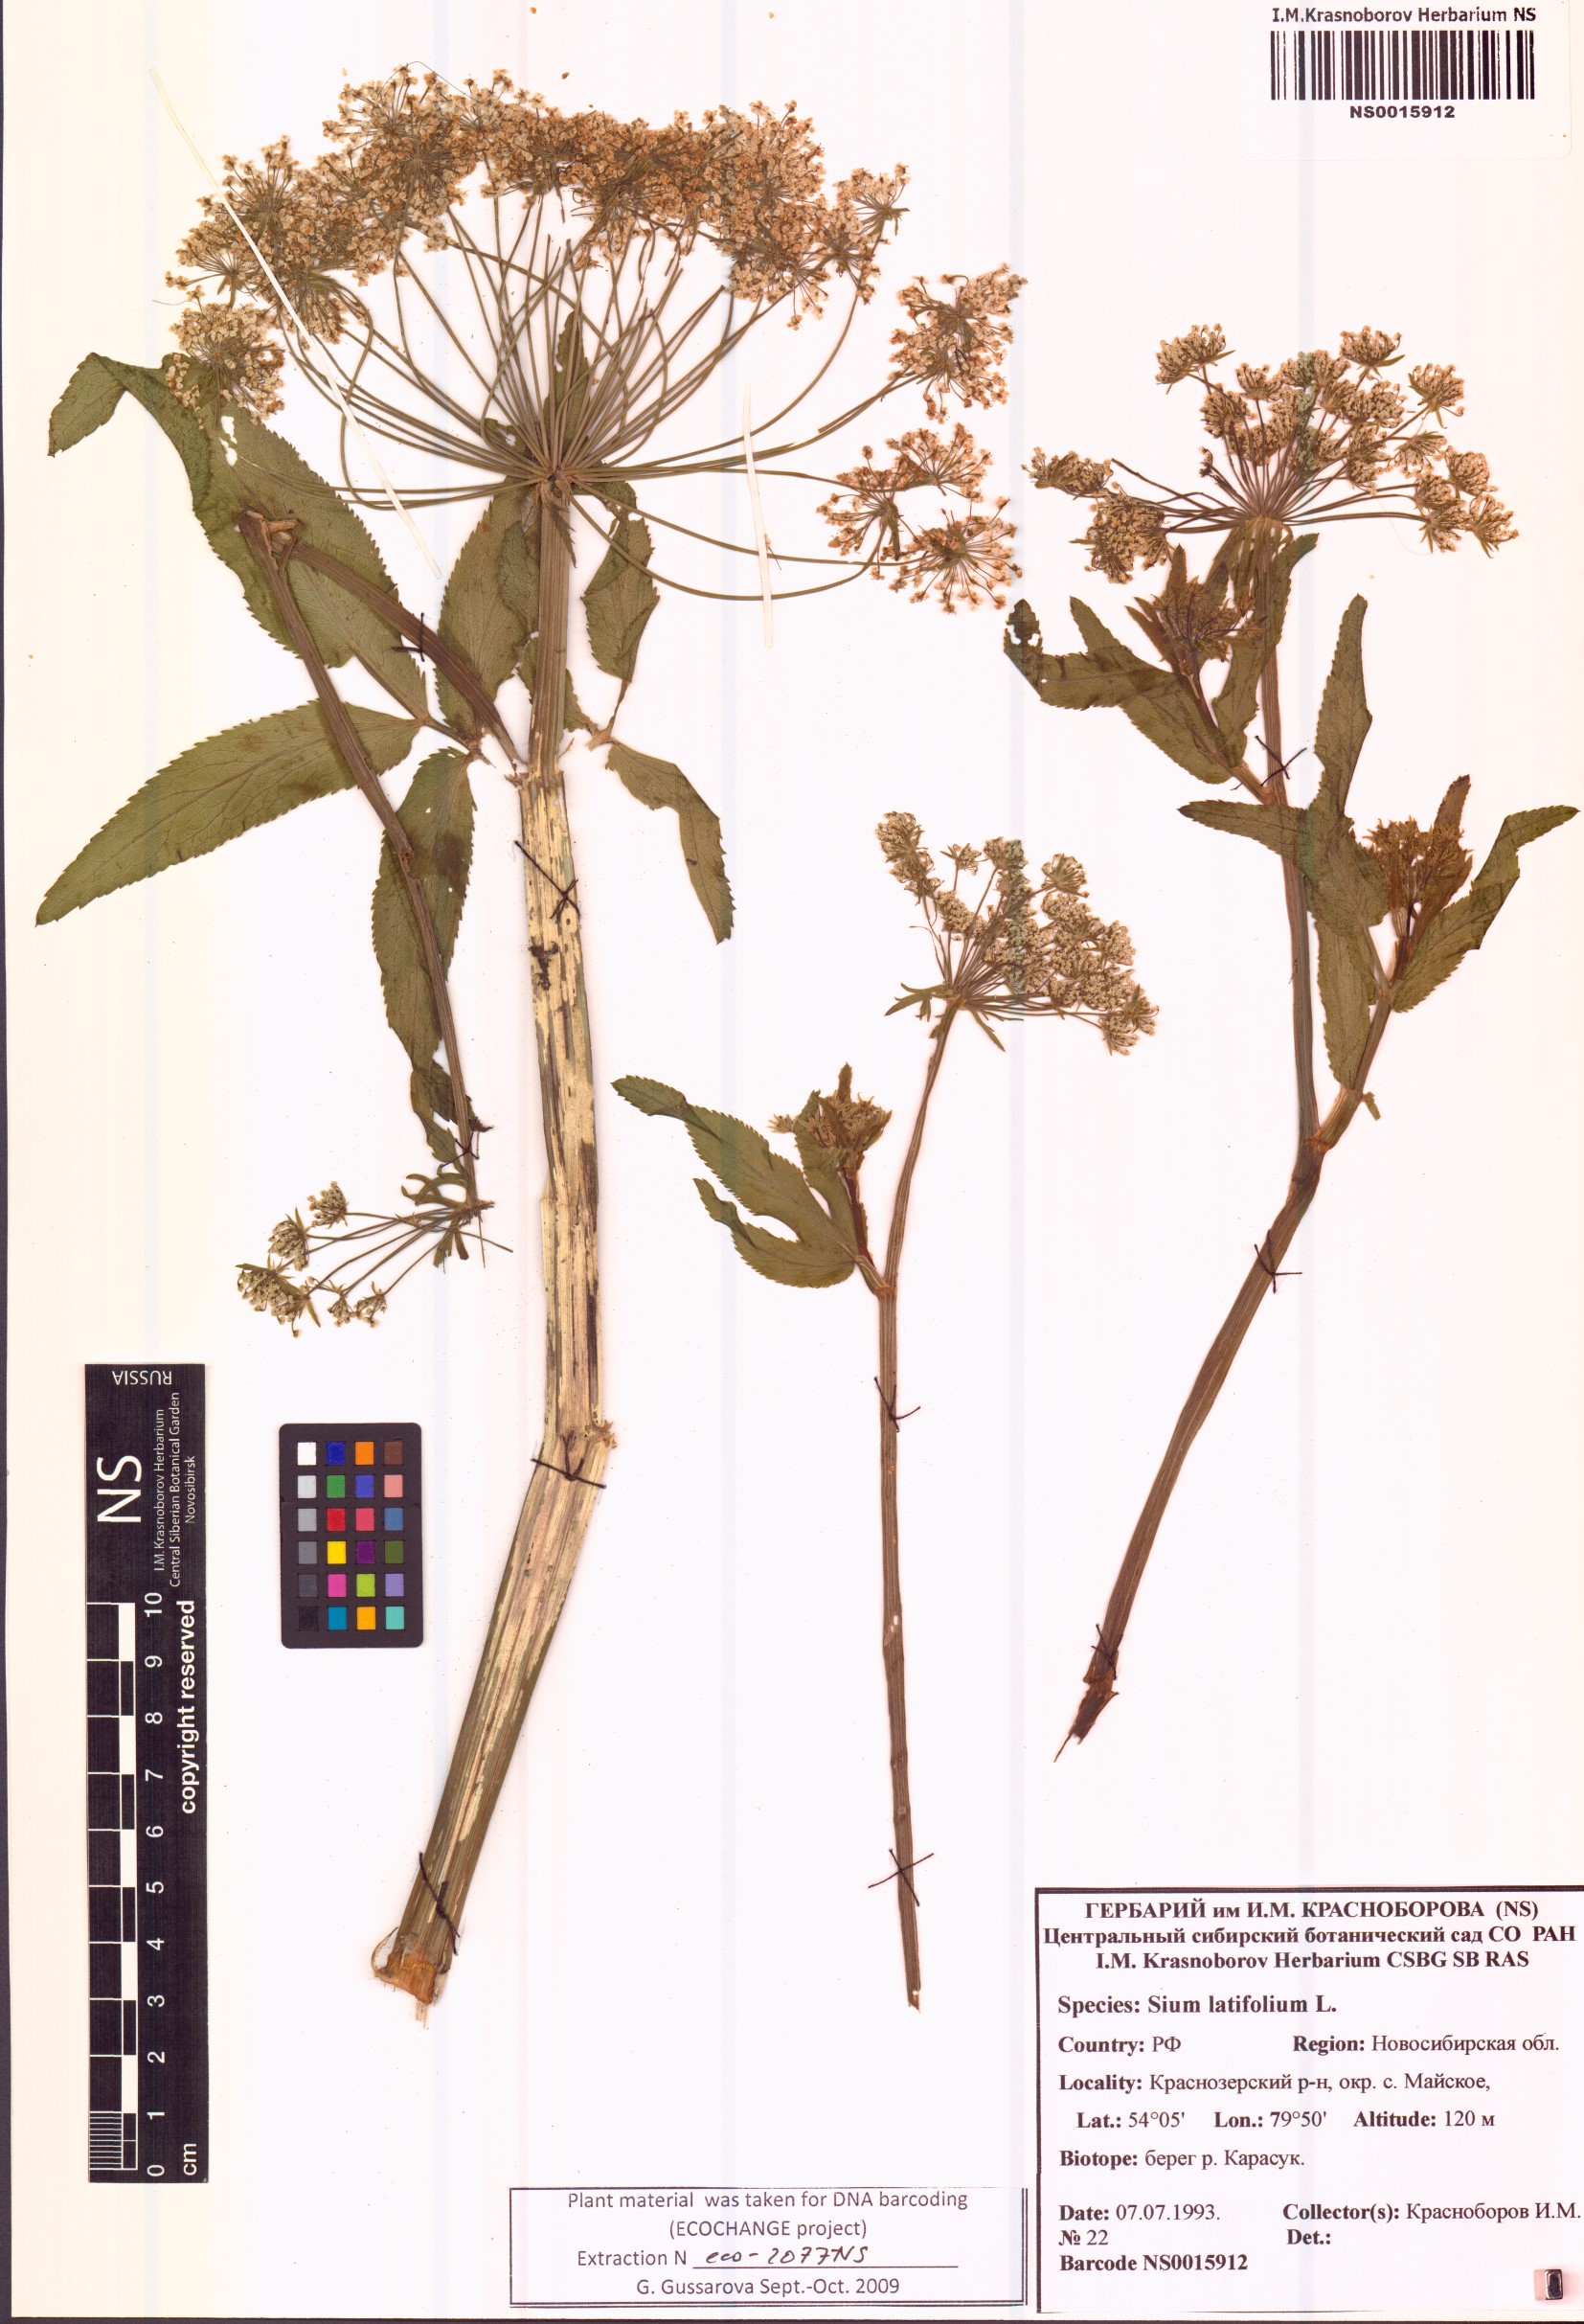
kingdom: Plantae
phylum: Tracheophyta
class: Magnoliopsida
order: Apiales
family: Apiaceae
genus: Sium
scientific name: Sium latifolium
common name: Greater water-parsnip
